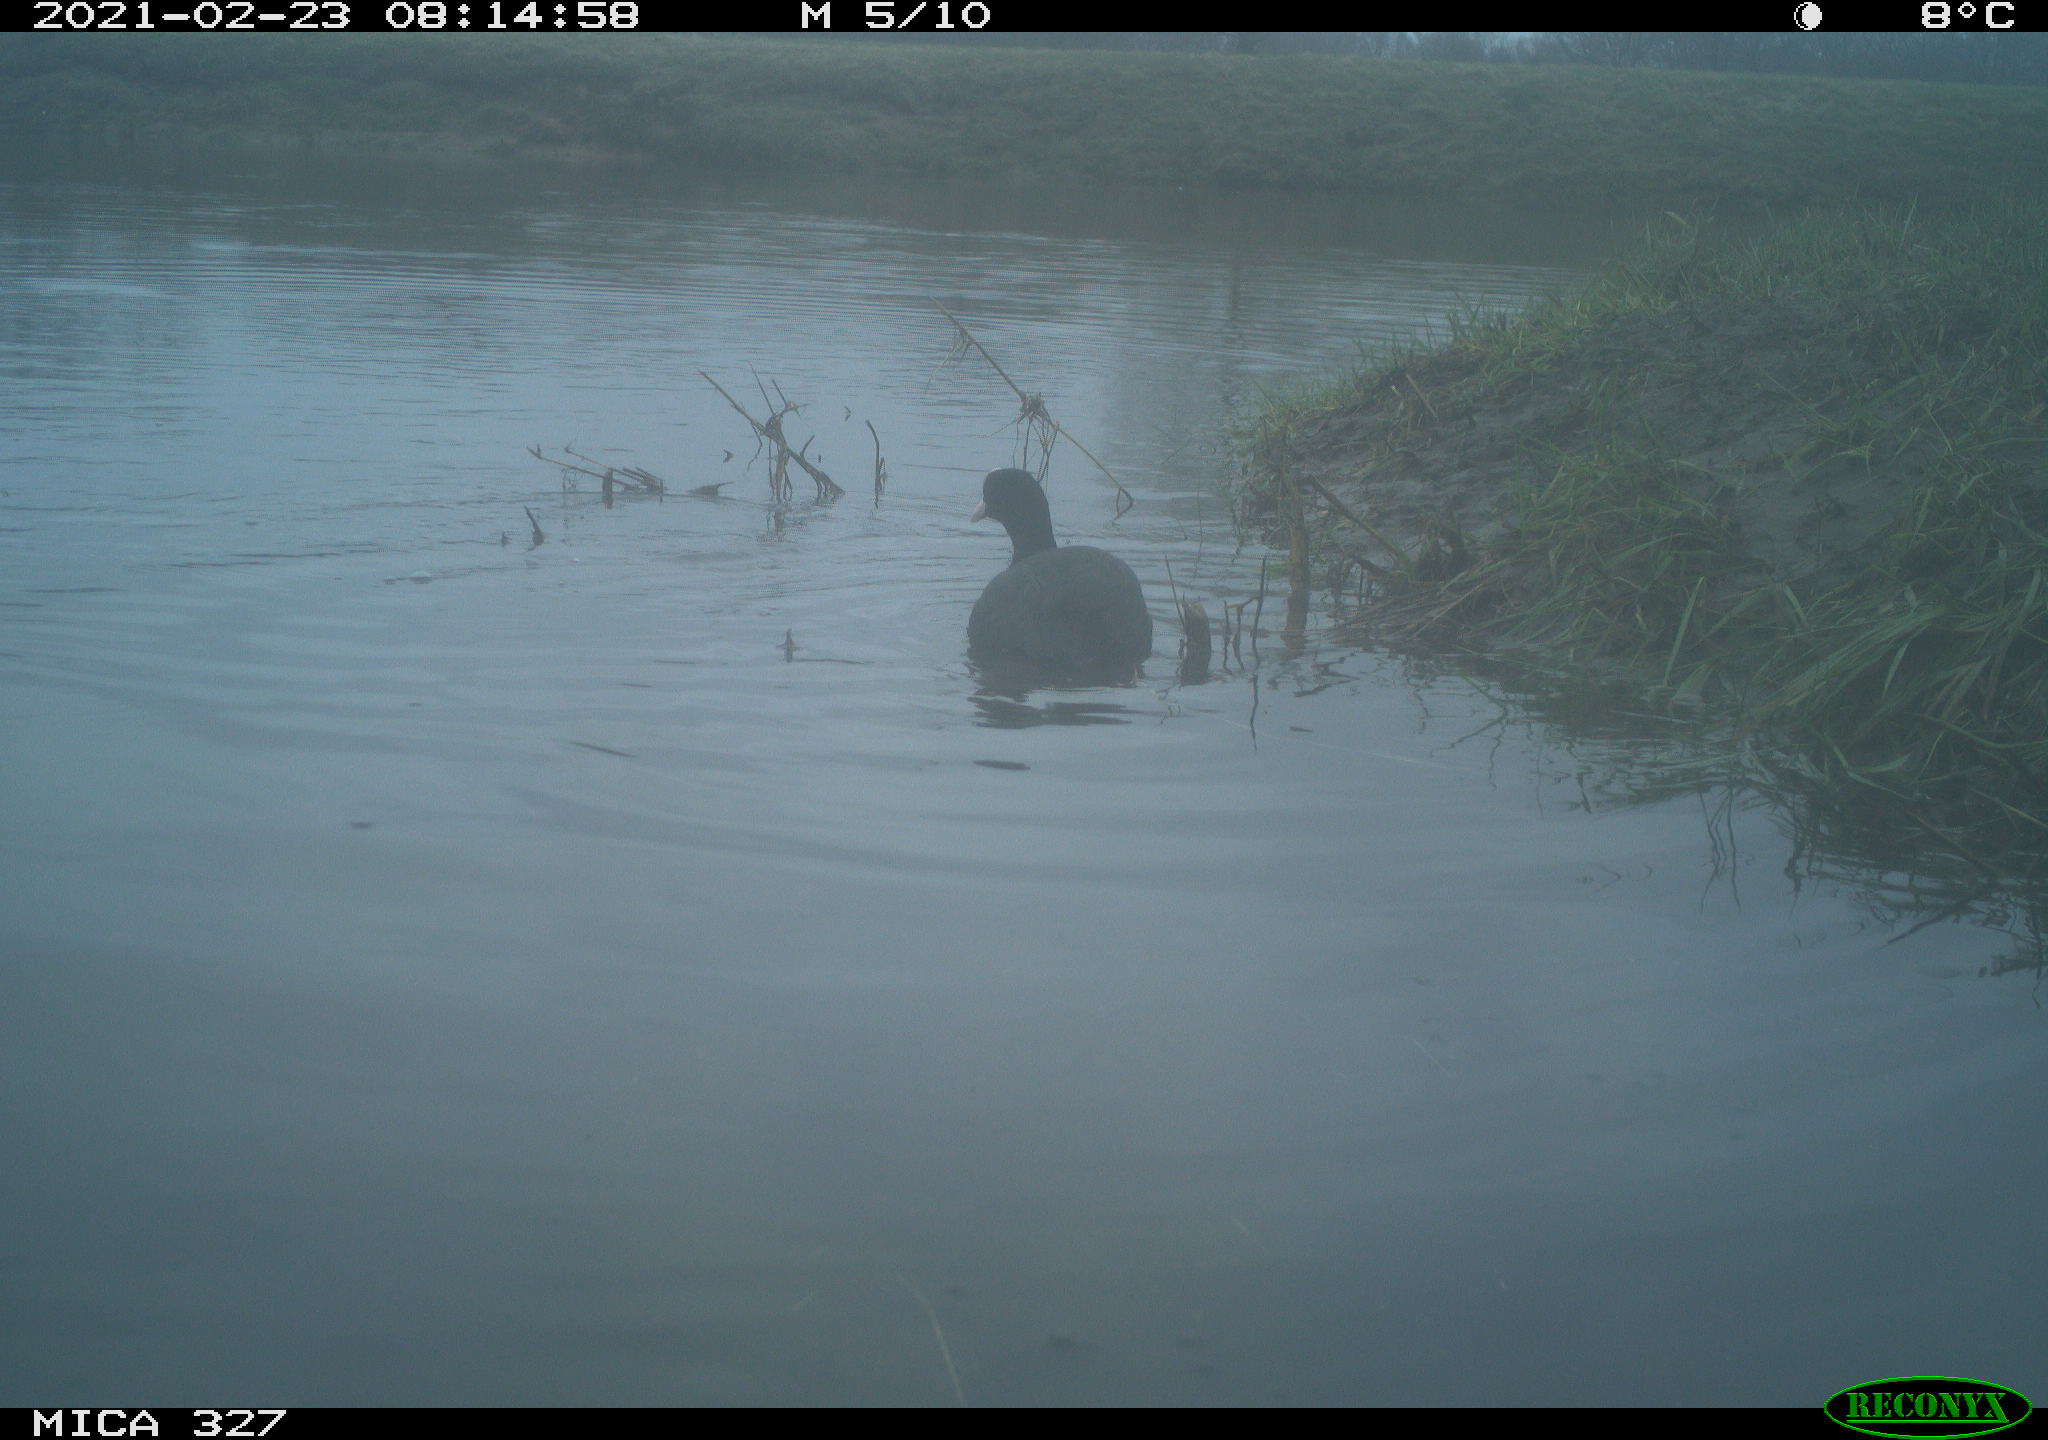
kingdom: Animalia
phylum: Chordata
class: Aves
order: Suliformes
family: Phalacrocoracidae
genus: Phalacrocorax
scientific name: Phalacrocorax carbo
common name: Great cormorant
